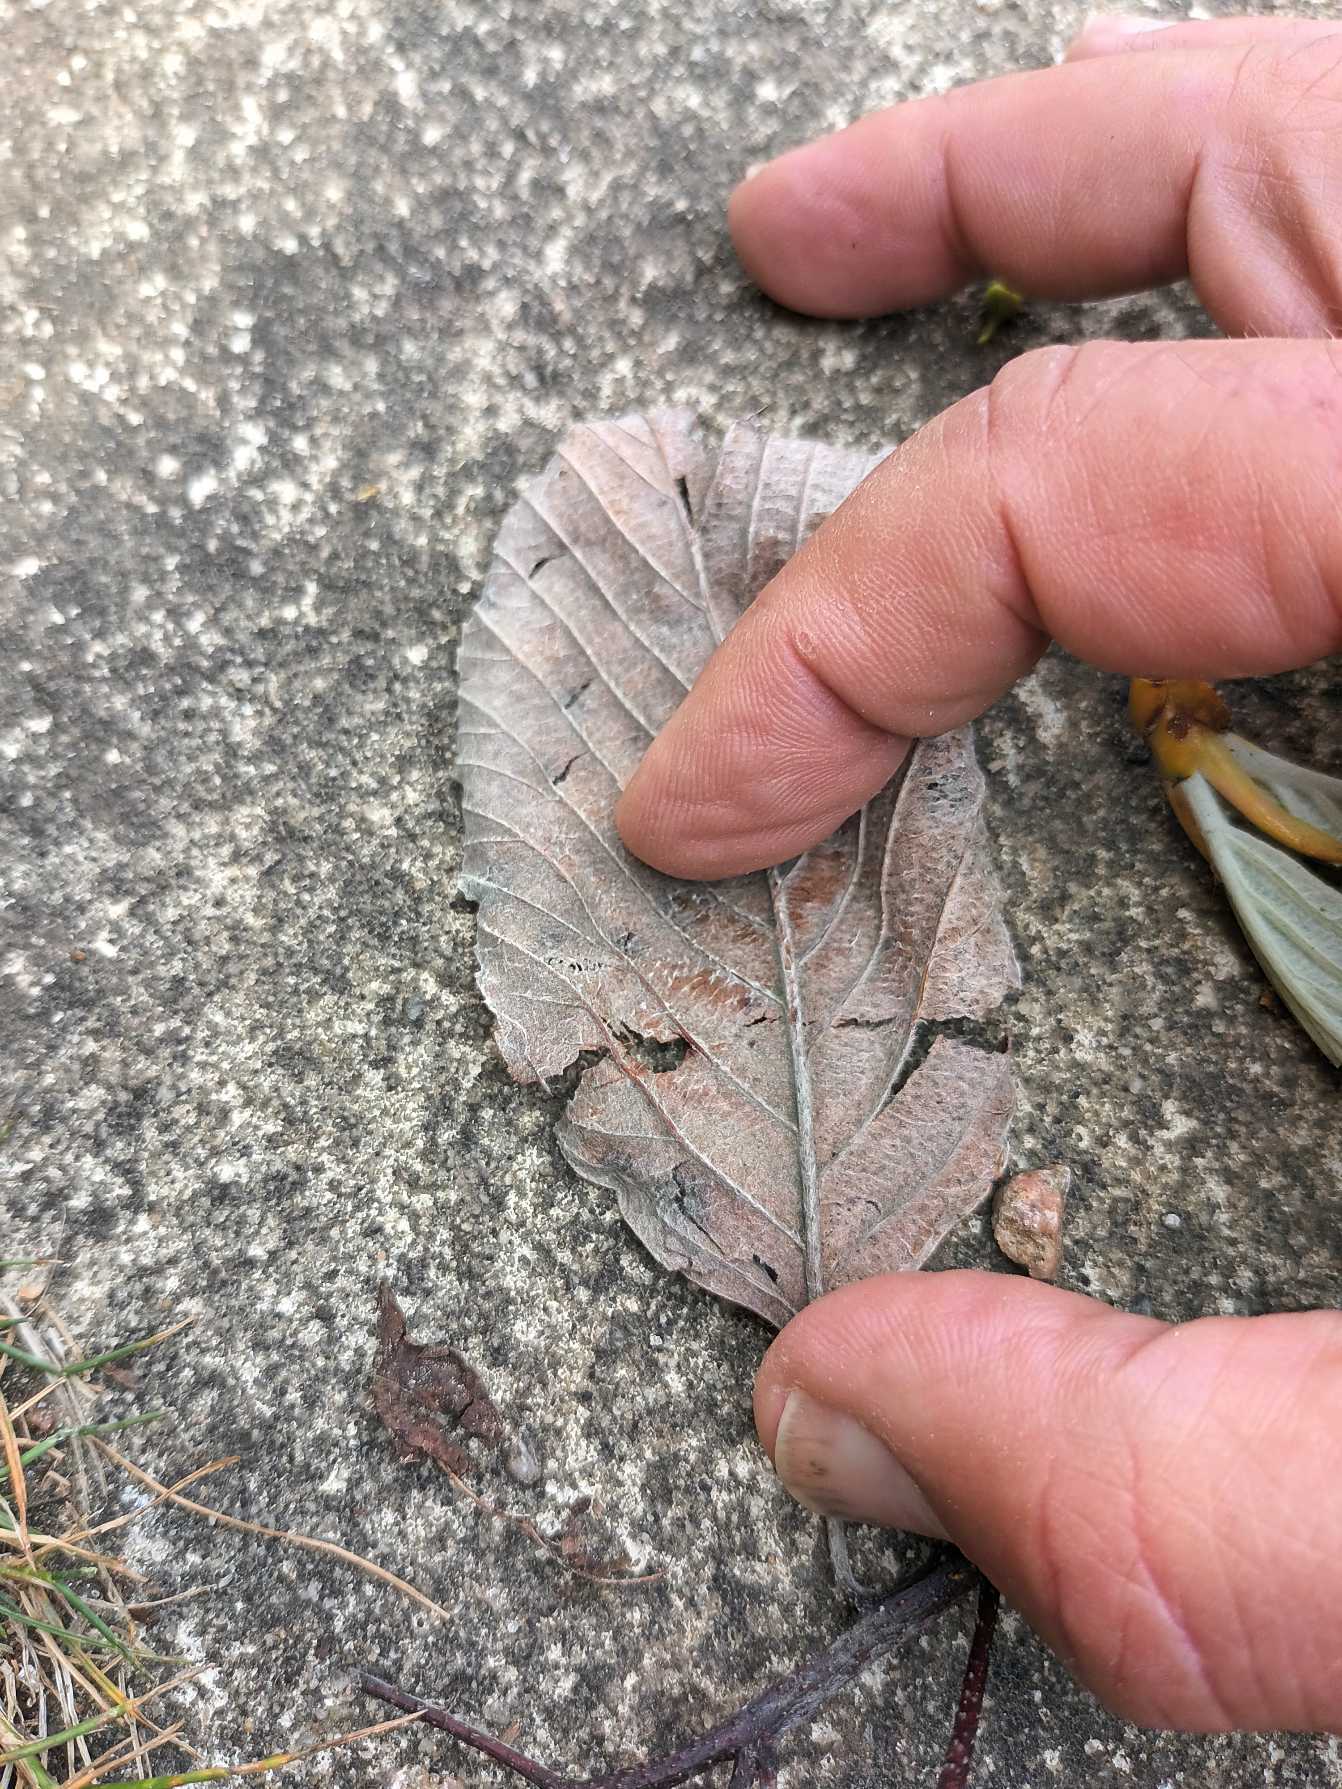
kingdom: Plantae
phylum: Tracheophyta
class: Magnoliopsida
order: Rosales
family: Rosaceae
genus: Aria
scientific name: Aria rupicola
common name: Klippe-røn
